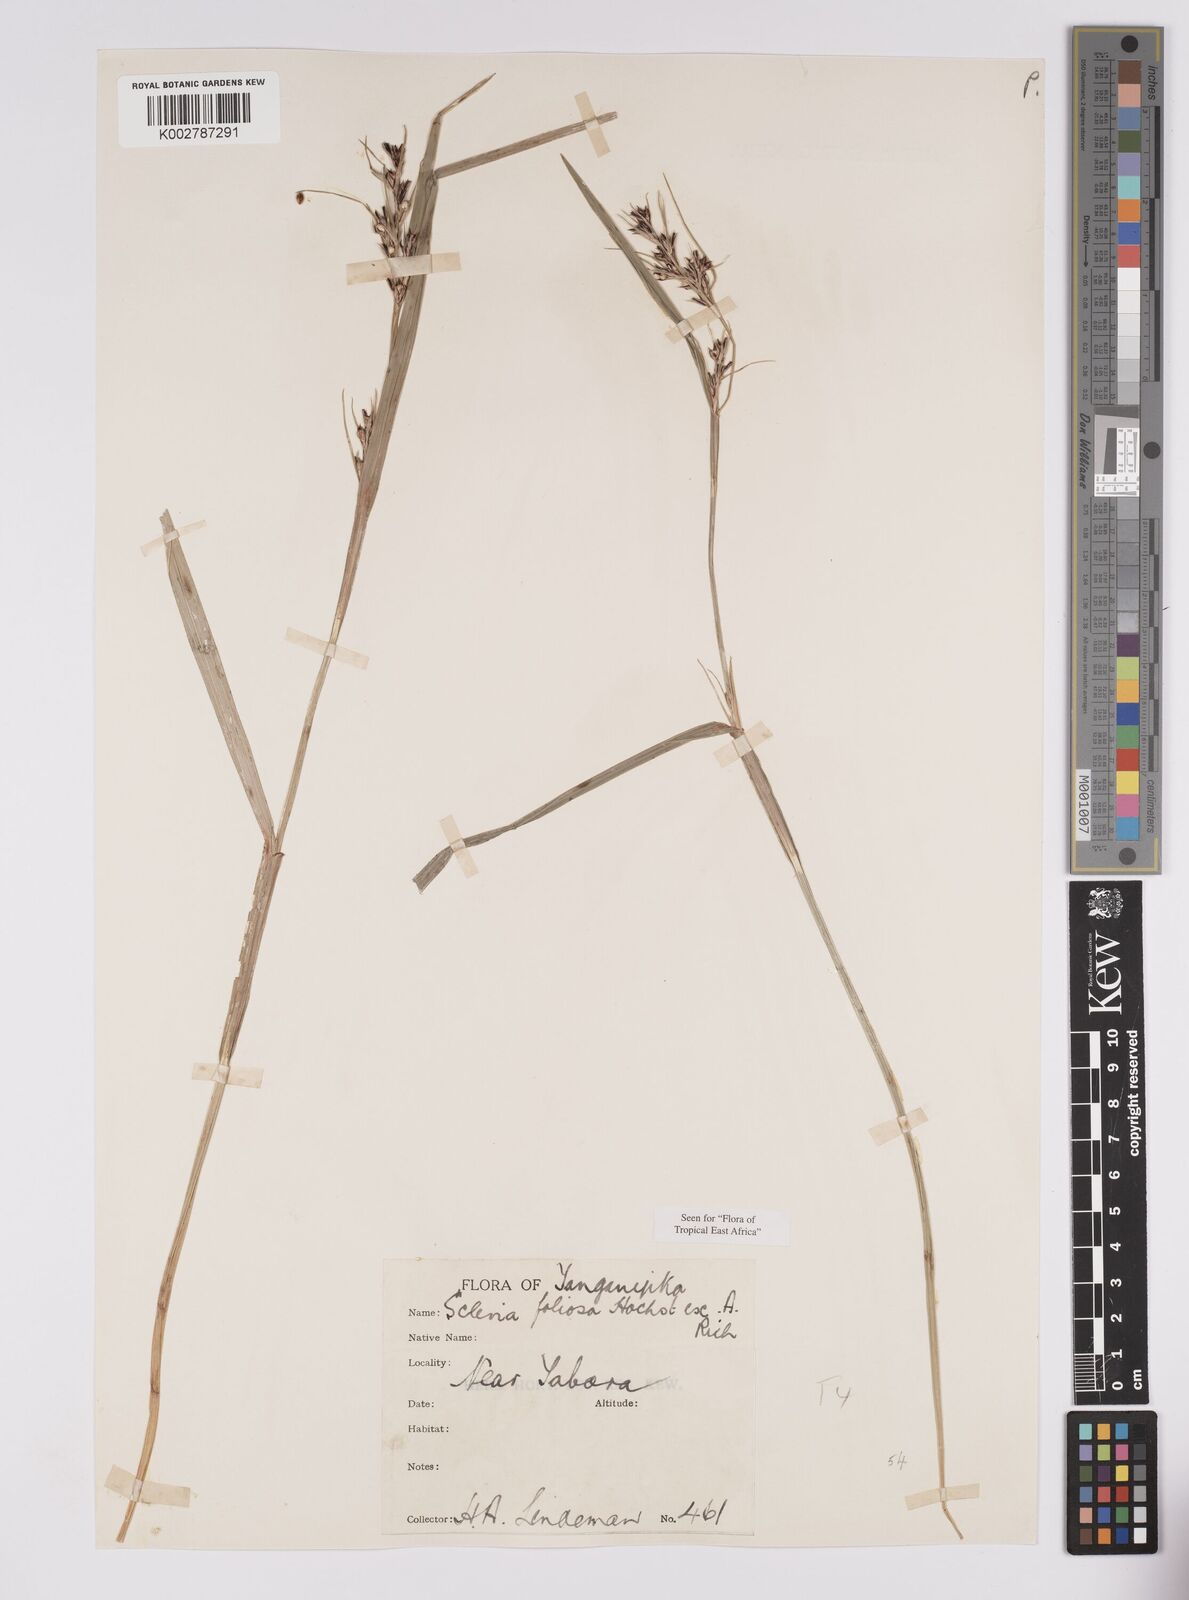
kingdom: Plantae
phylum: Tracheophyta
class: Liliopsida
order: Poales
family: Cyperaceae
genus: Scleria
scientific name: Scleria foliosa
